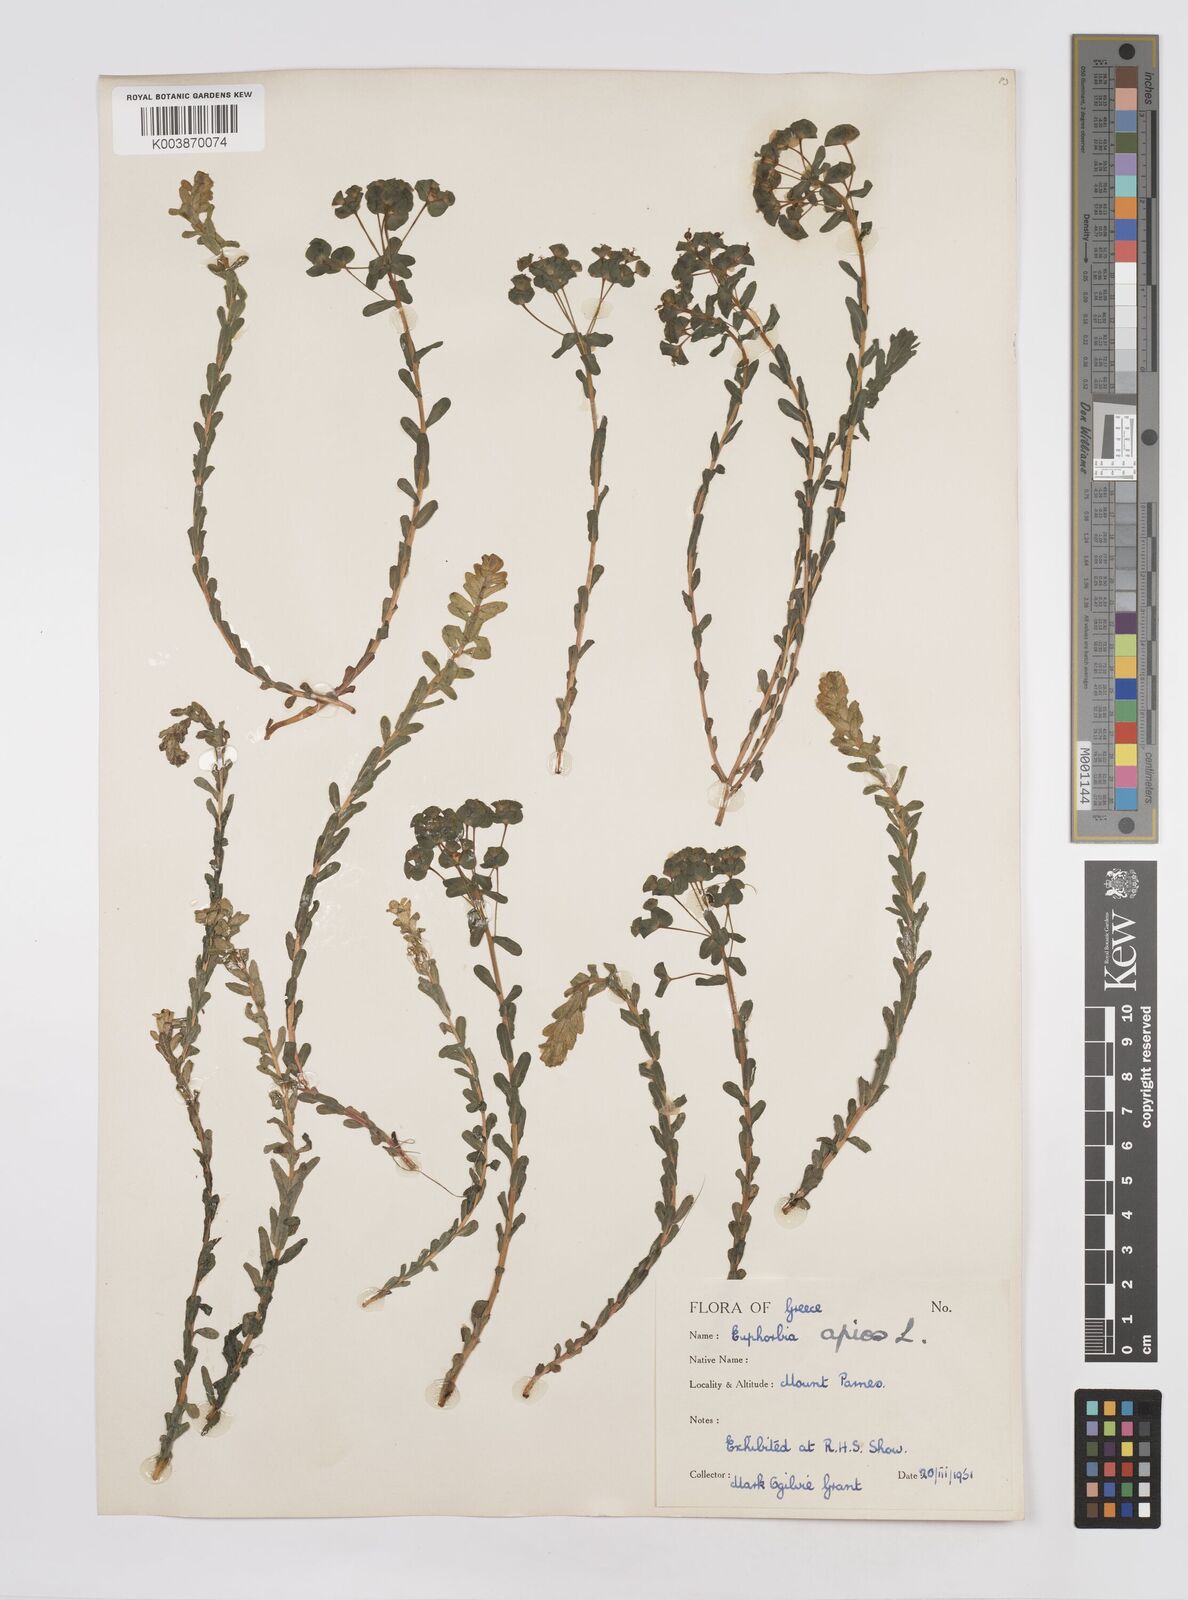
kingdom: Plantae
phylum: Tracheophyta
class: Magnoliopsida
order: Malpighiales
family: Euphorbiaceae
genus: Euphorbia
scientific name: Euphorbia apios
